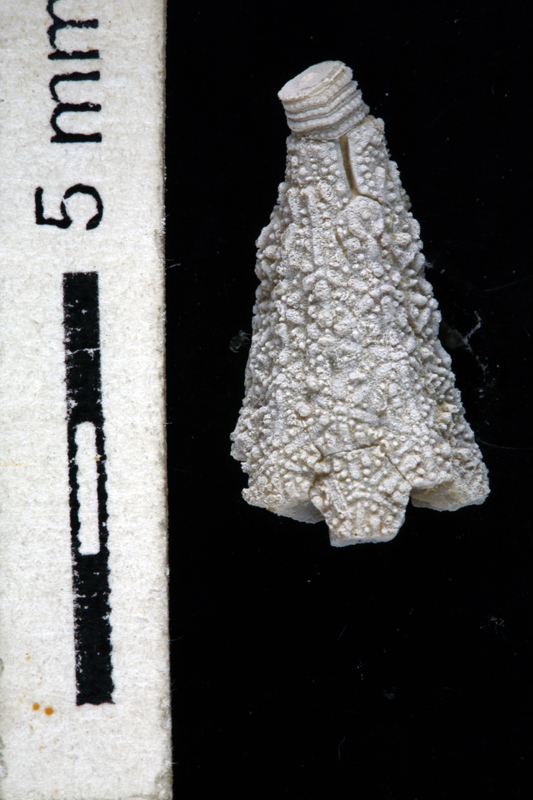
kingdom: Animalia
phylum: Echinodermata
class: Crinoidea
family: Palaeocystitidae
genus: Bromidocystis
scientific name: Bromidocystis bassleri
